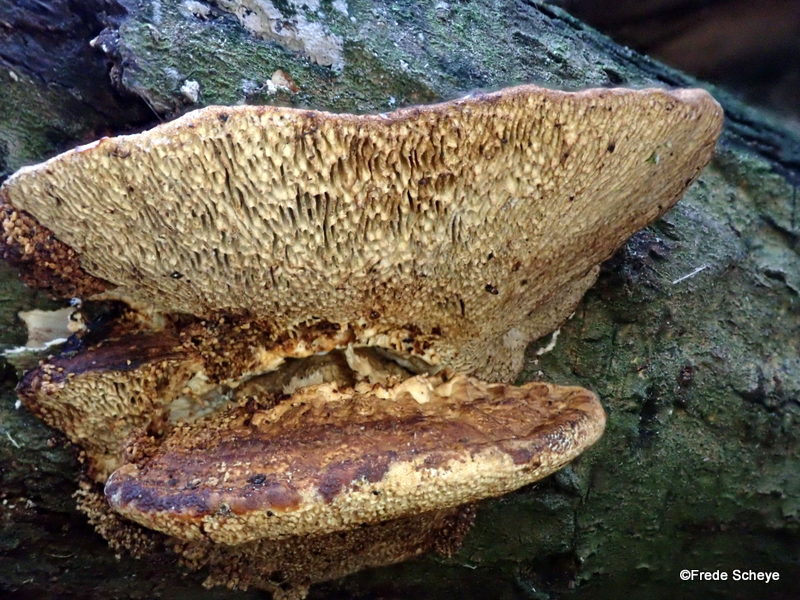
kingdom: Fungi
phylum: Basidiomycota
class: Agaricomycetes
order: Polyporales
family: Polyporaceae
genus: Daedaleopsis
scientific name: Daedaleopsis confragosa
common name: rødmende læderporesvamp
